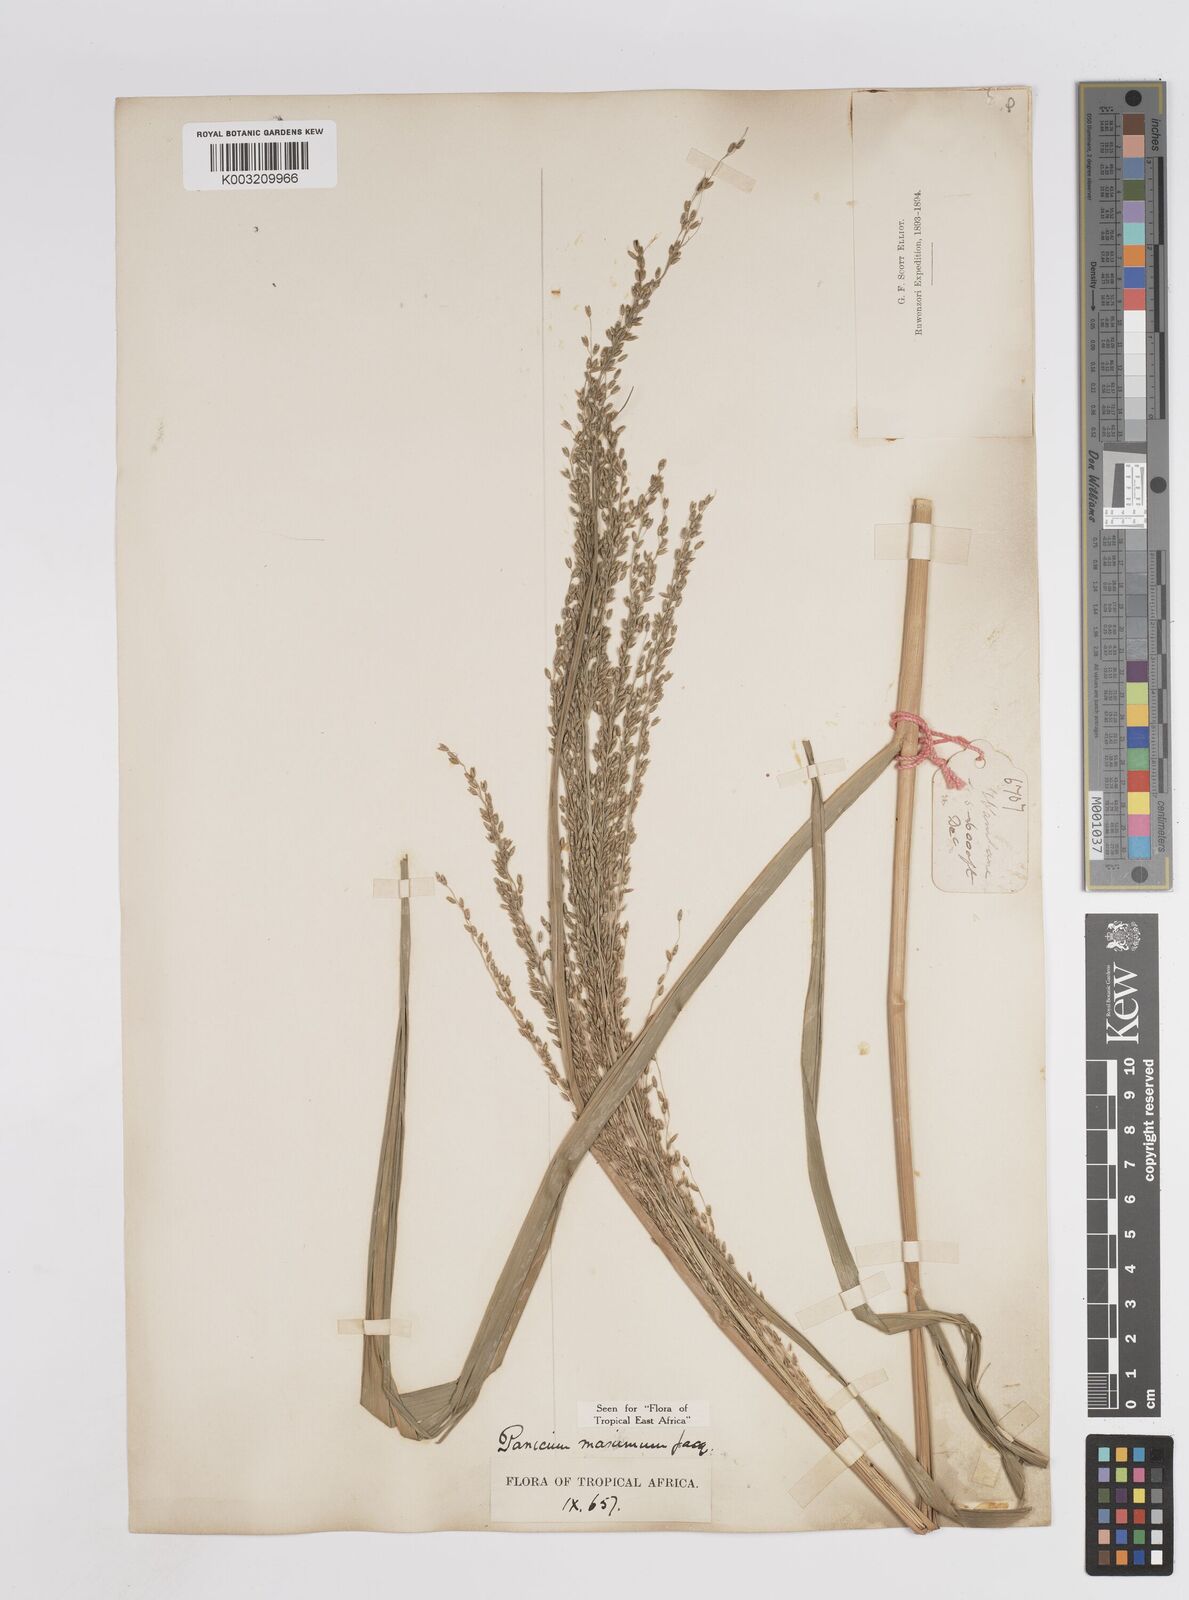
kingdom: Plantae
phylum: Tracheophyta
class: Liliopsida
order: Poales
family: Poaceae
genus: Megathyrsus
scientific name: Megathyrsus maximus
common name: Guineagrass
